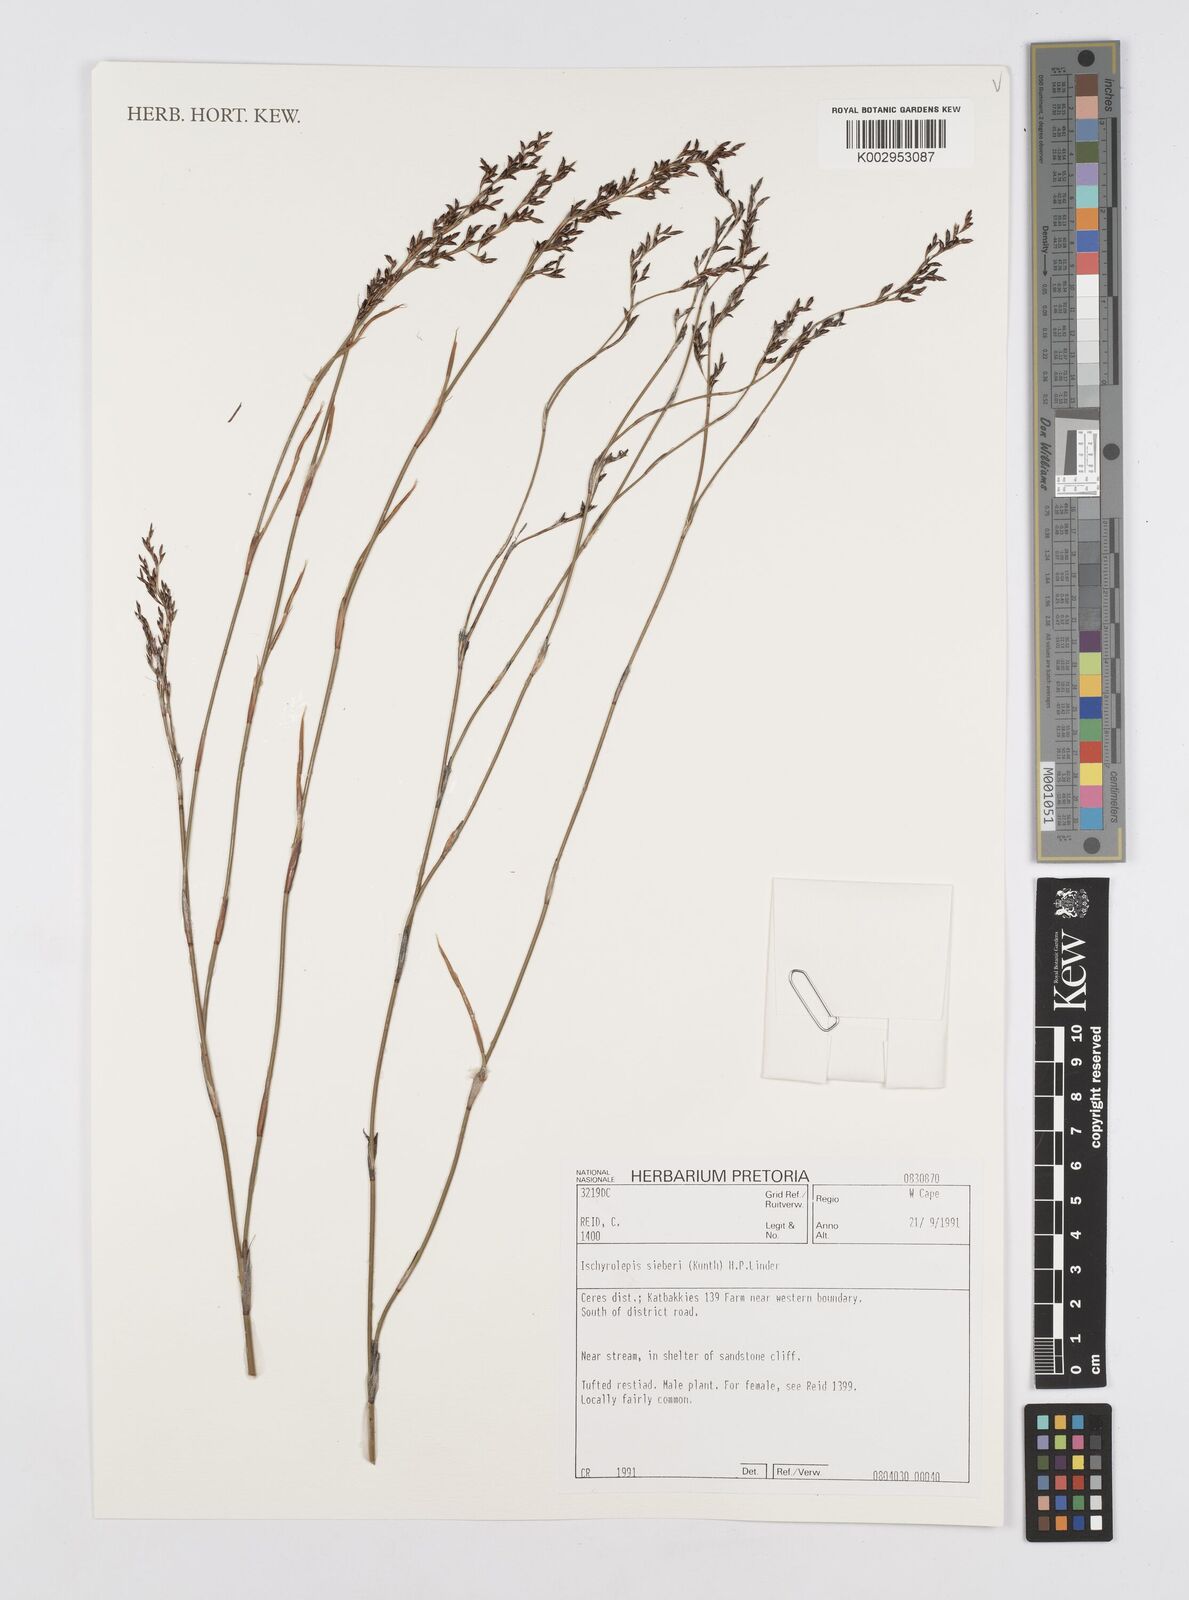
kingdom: Plantae
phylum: Tracheophyta
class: Liliopsida
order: Poales
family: Restionaceae
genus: Restio
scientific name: Restio sieberi
